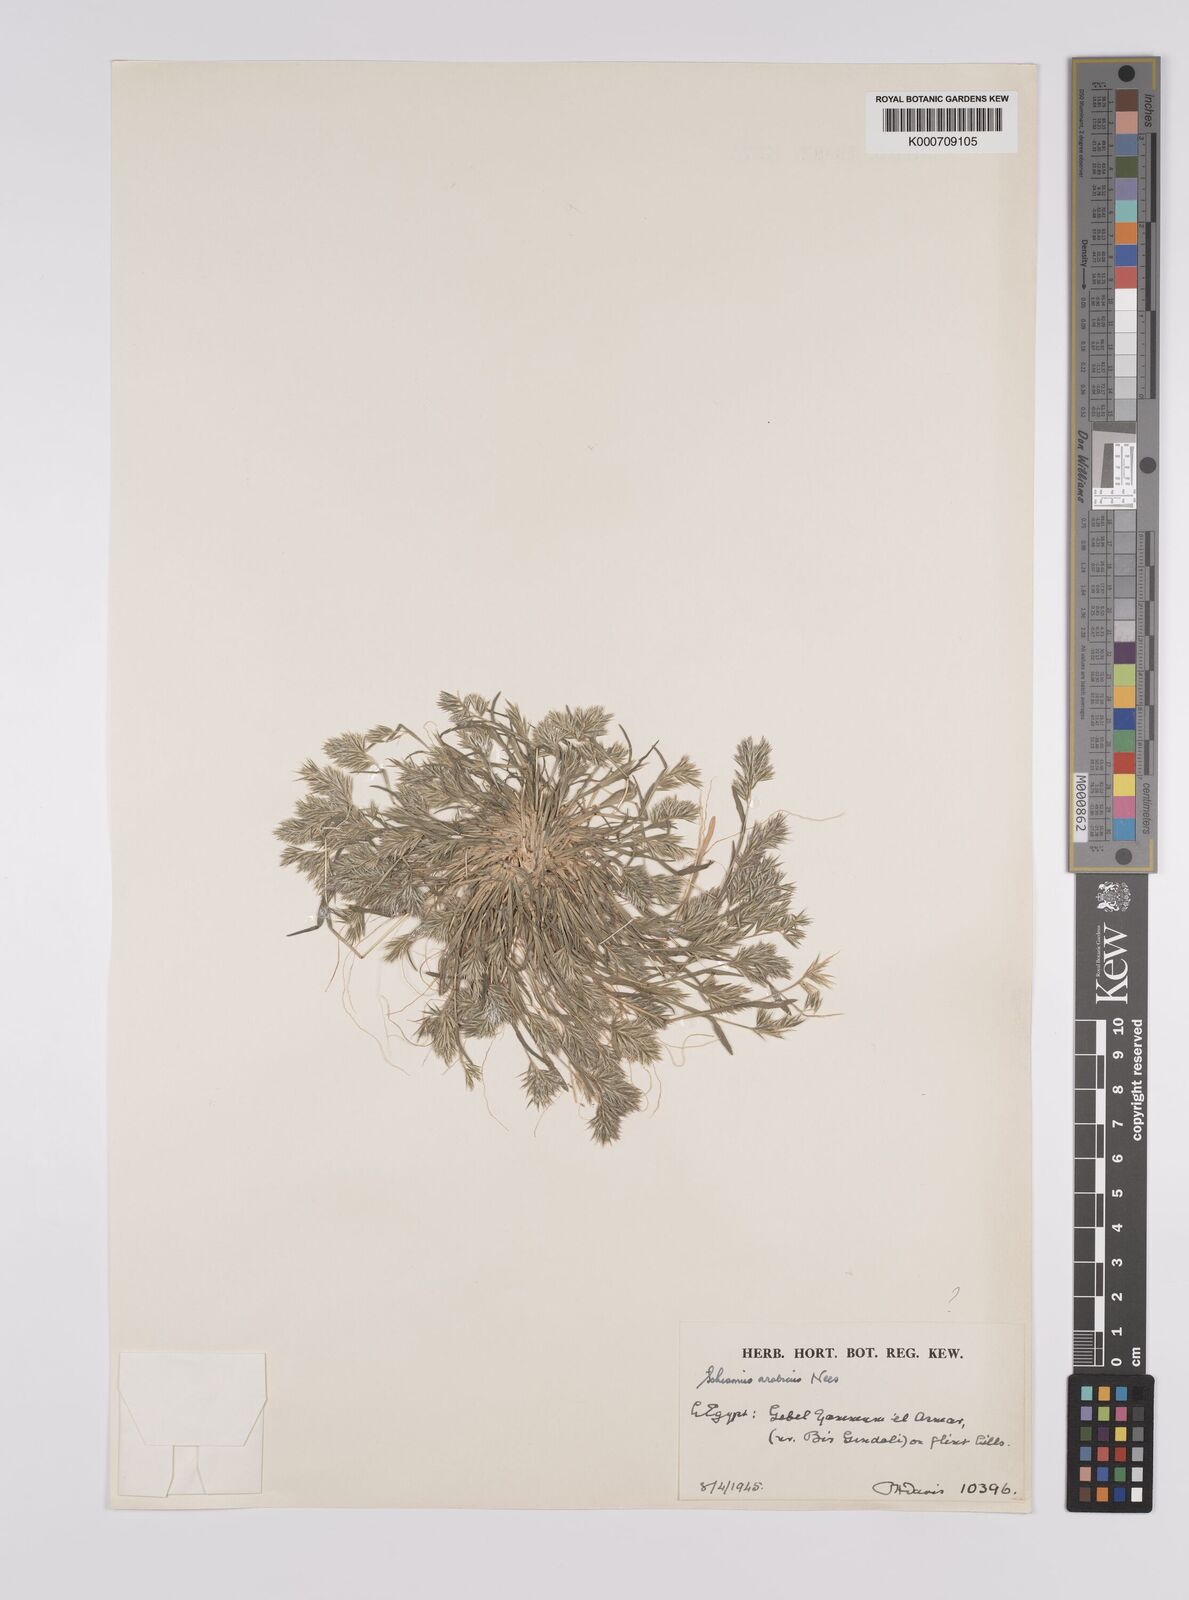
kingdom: Plantae
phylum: Tracheophyta
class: Liliopsida
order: Poales
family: Poaceae
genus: Schismus
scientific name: Schismus arabicus
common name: Arabian schismus
